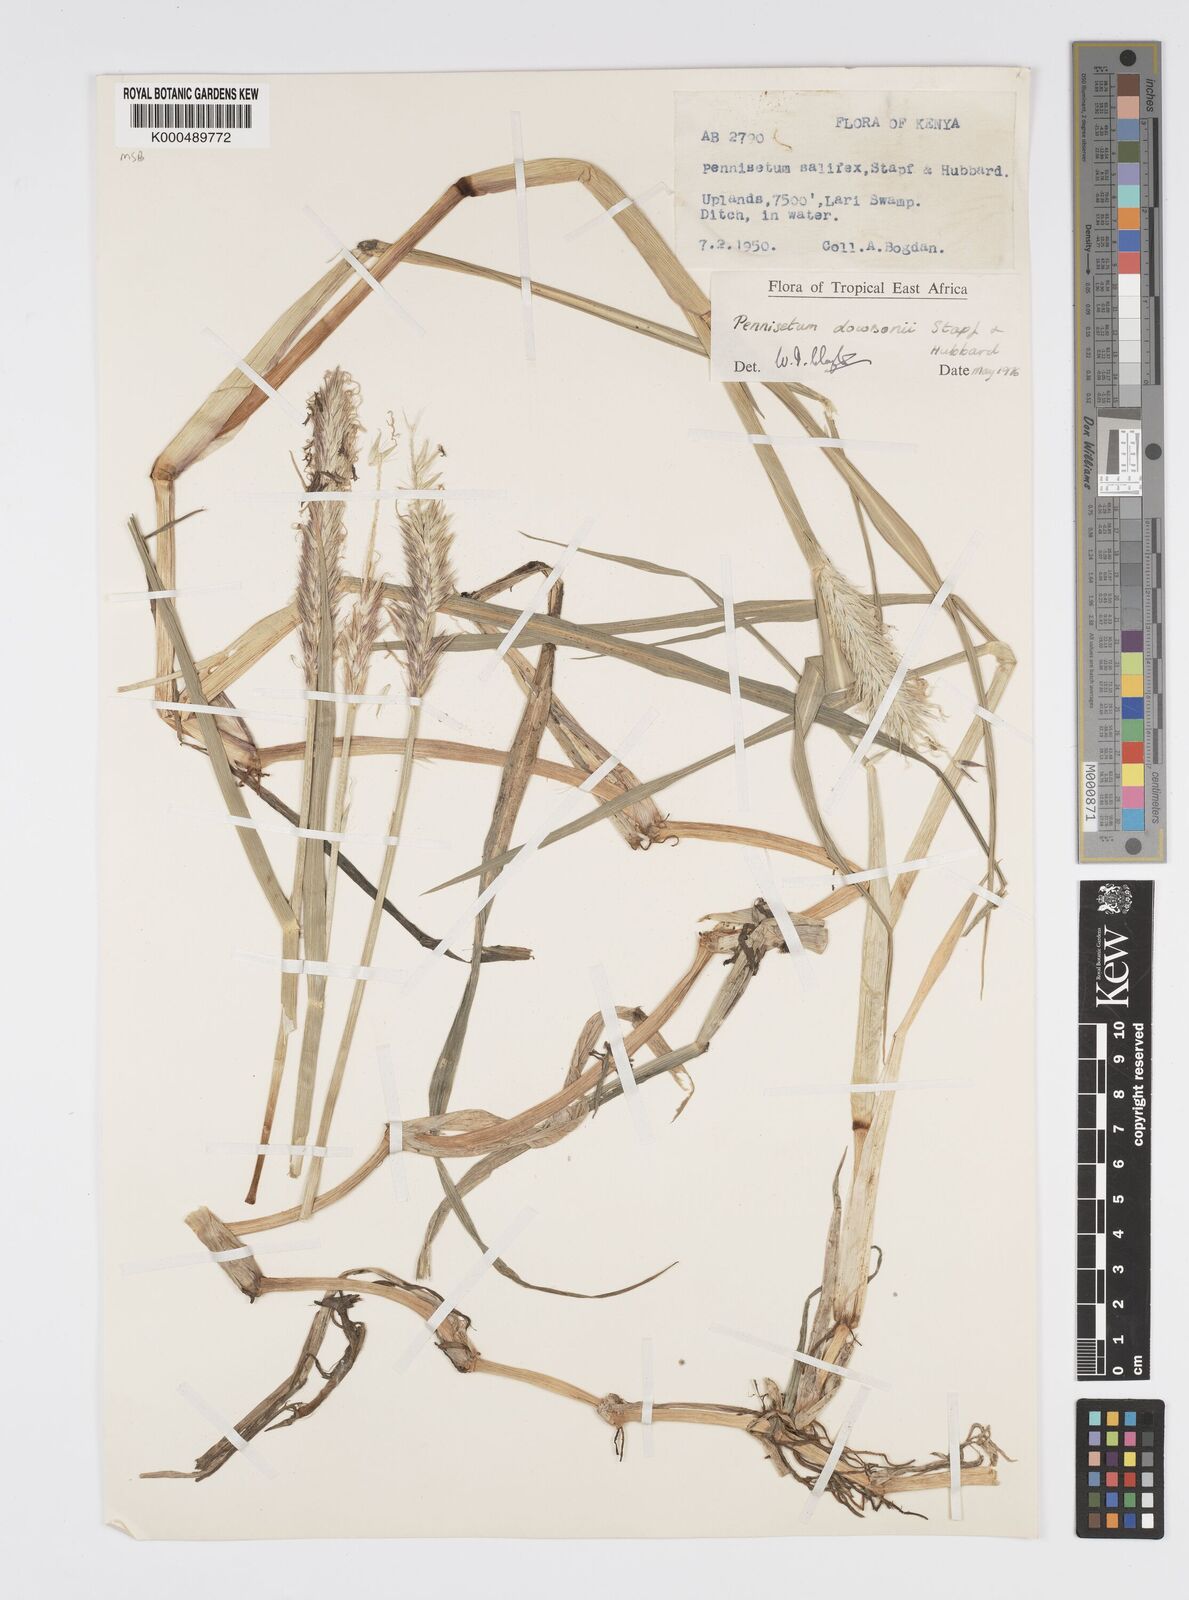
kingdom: Plantae
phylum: Tracheophyta
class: Liliopsida
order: Poales
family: Poaceae
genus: Cenchrus
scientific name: Cenchrus Pennisetum spec
